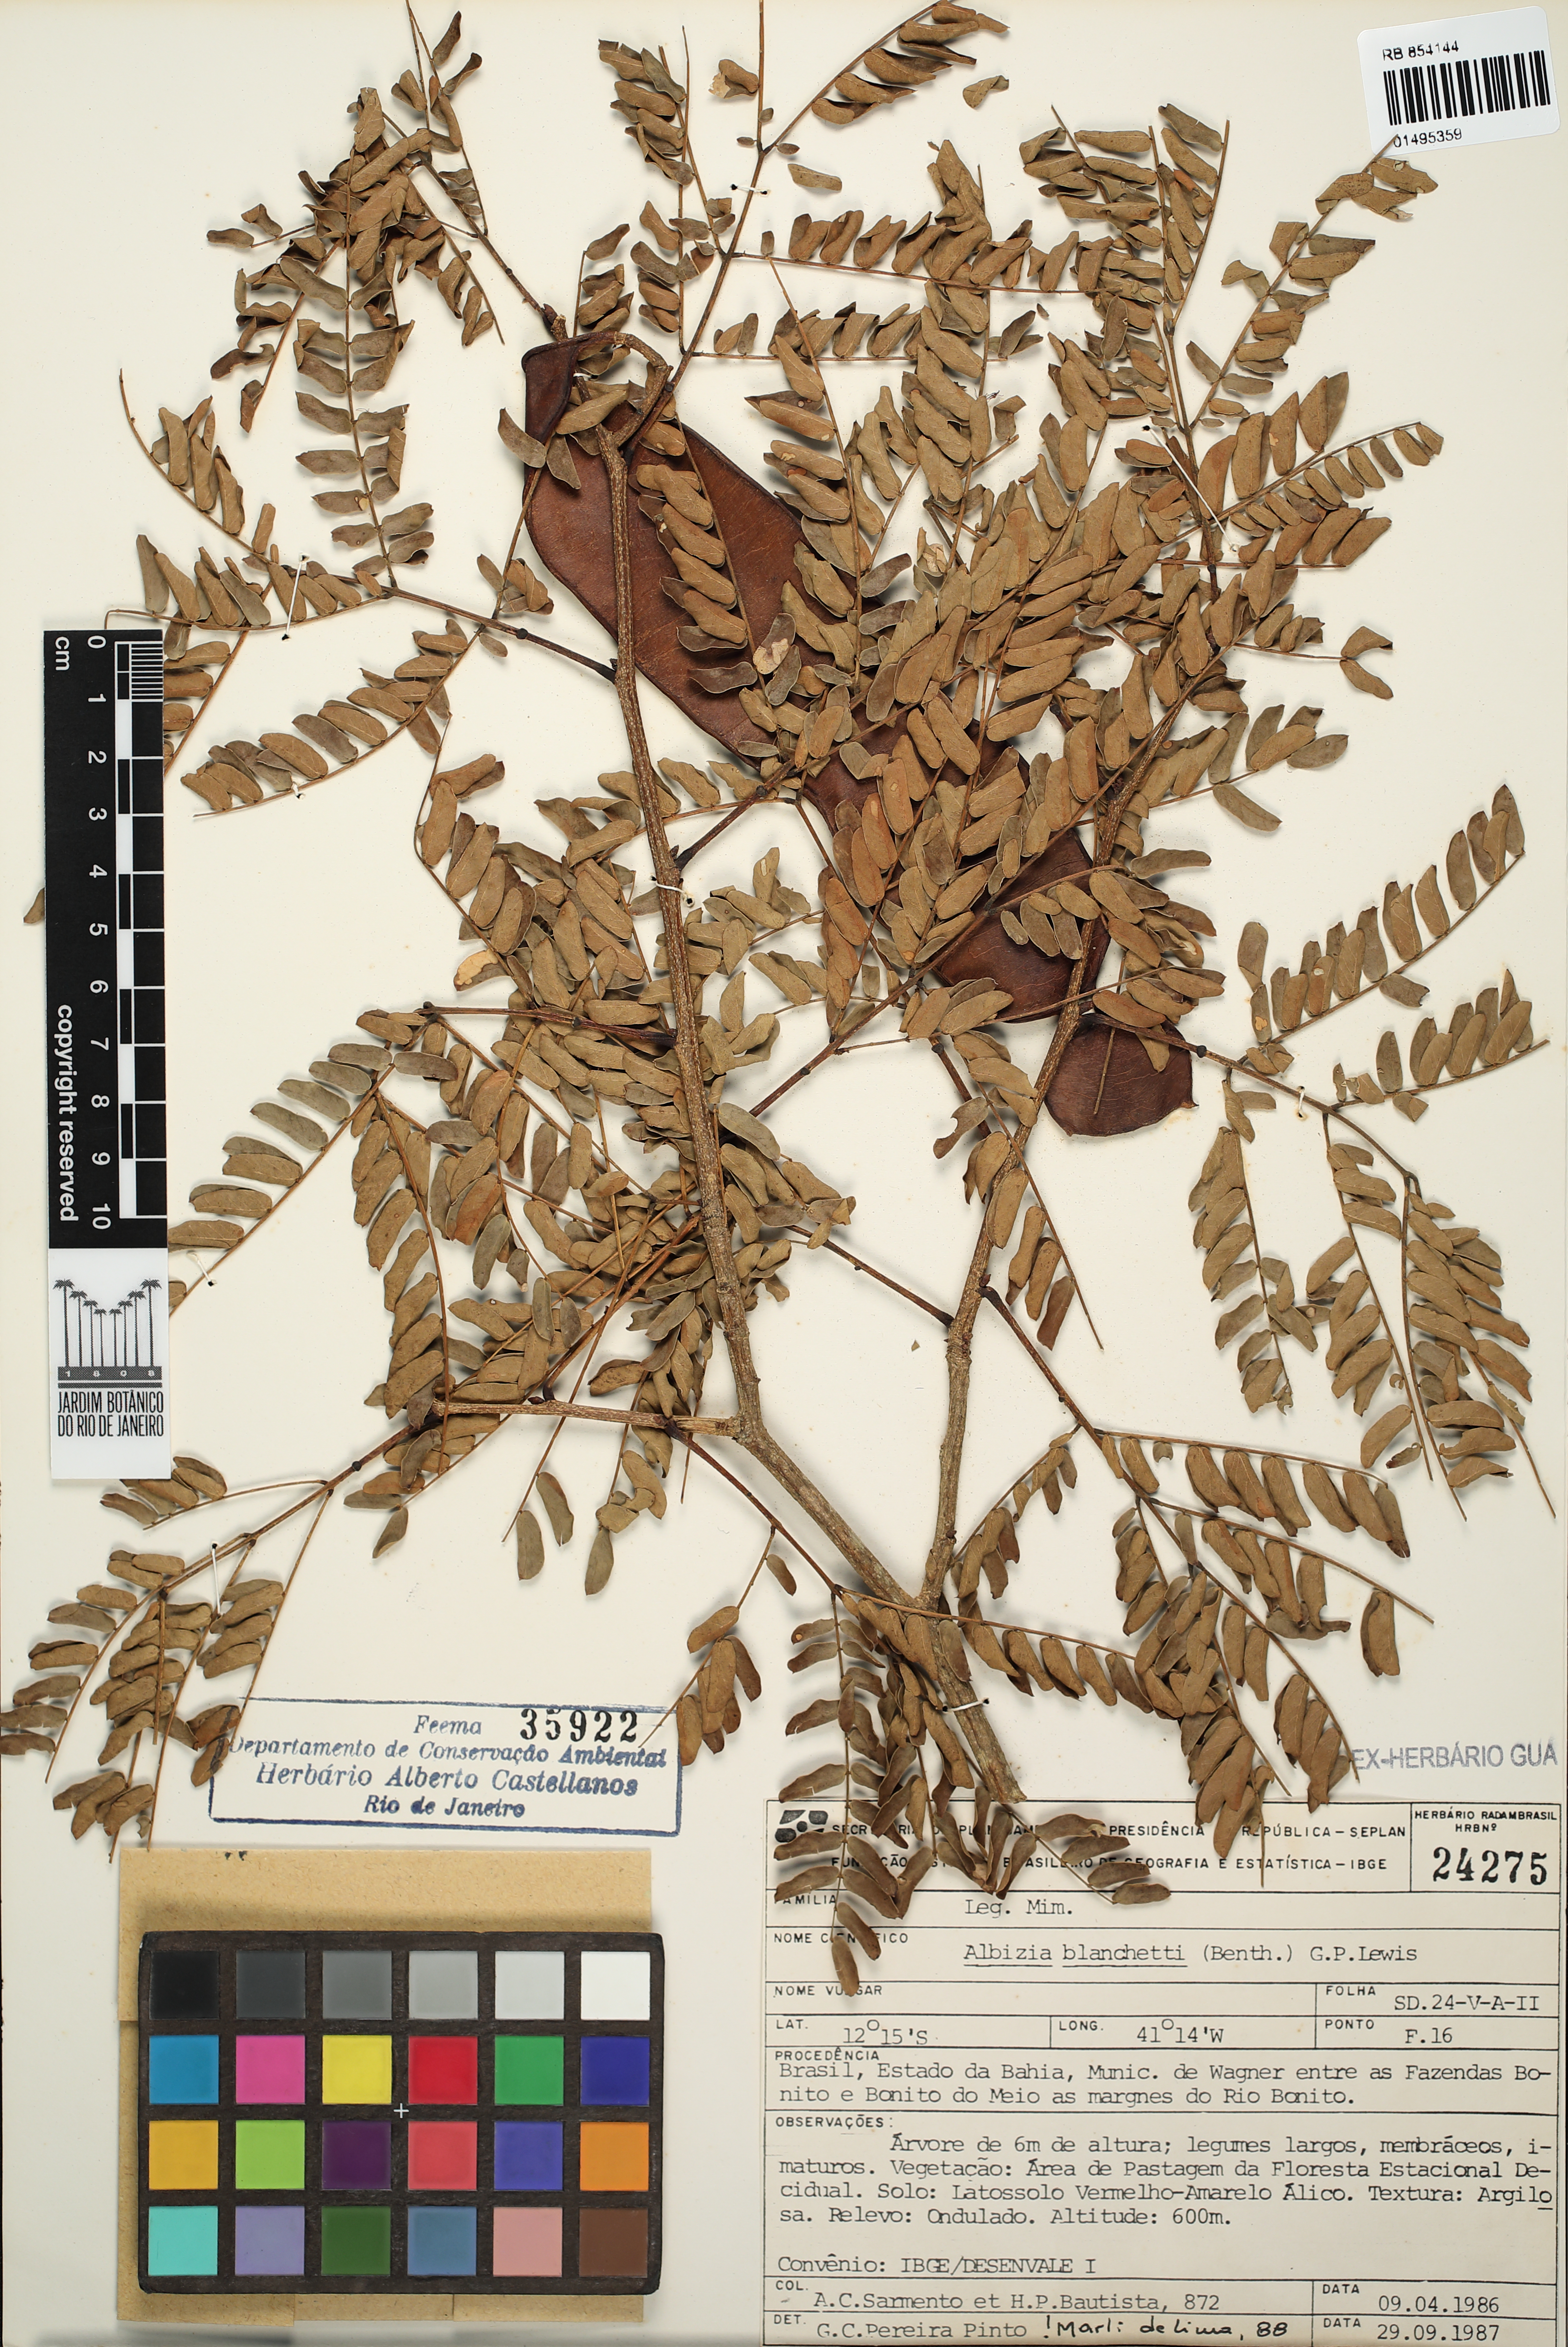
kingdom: Plantae
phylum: Tracheophyta
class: Magnoliopsida
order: Fabales
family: Fabaceae
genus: Blanchetiodendron
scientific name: Blanchetiodendron blanchetii
